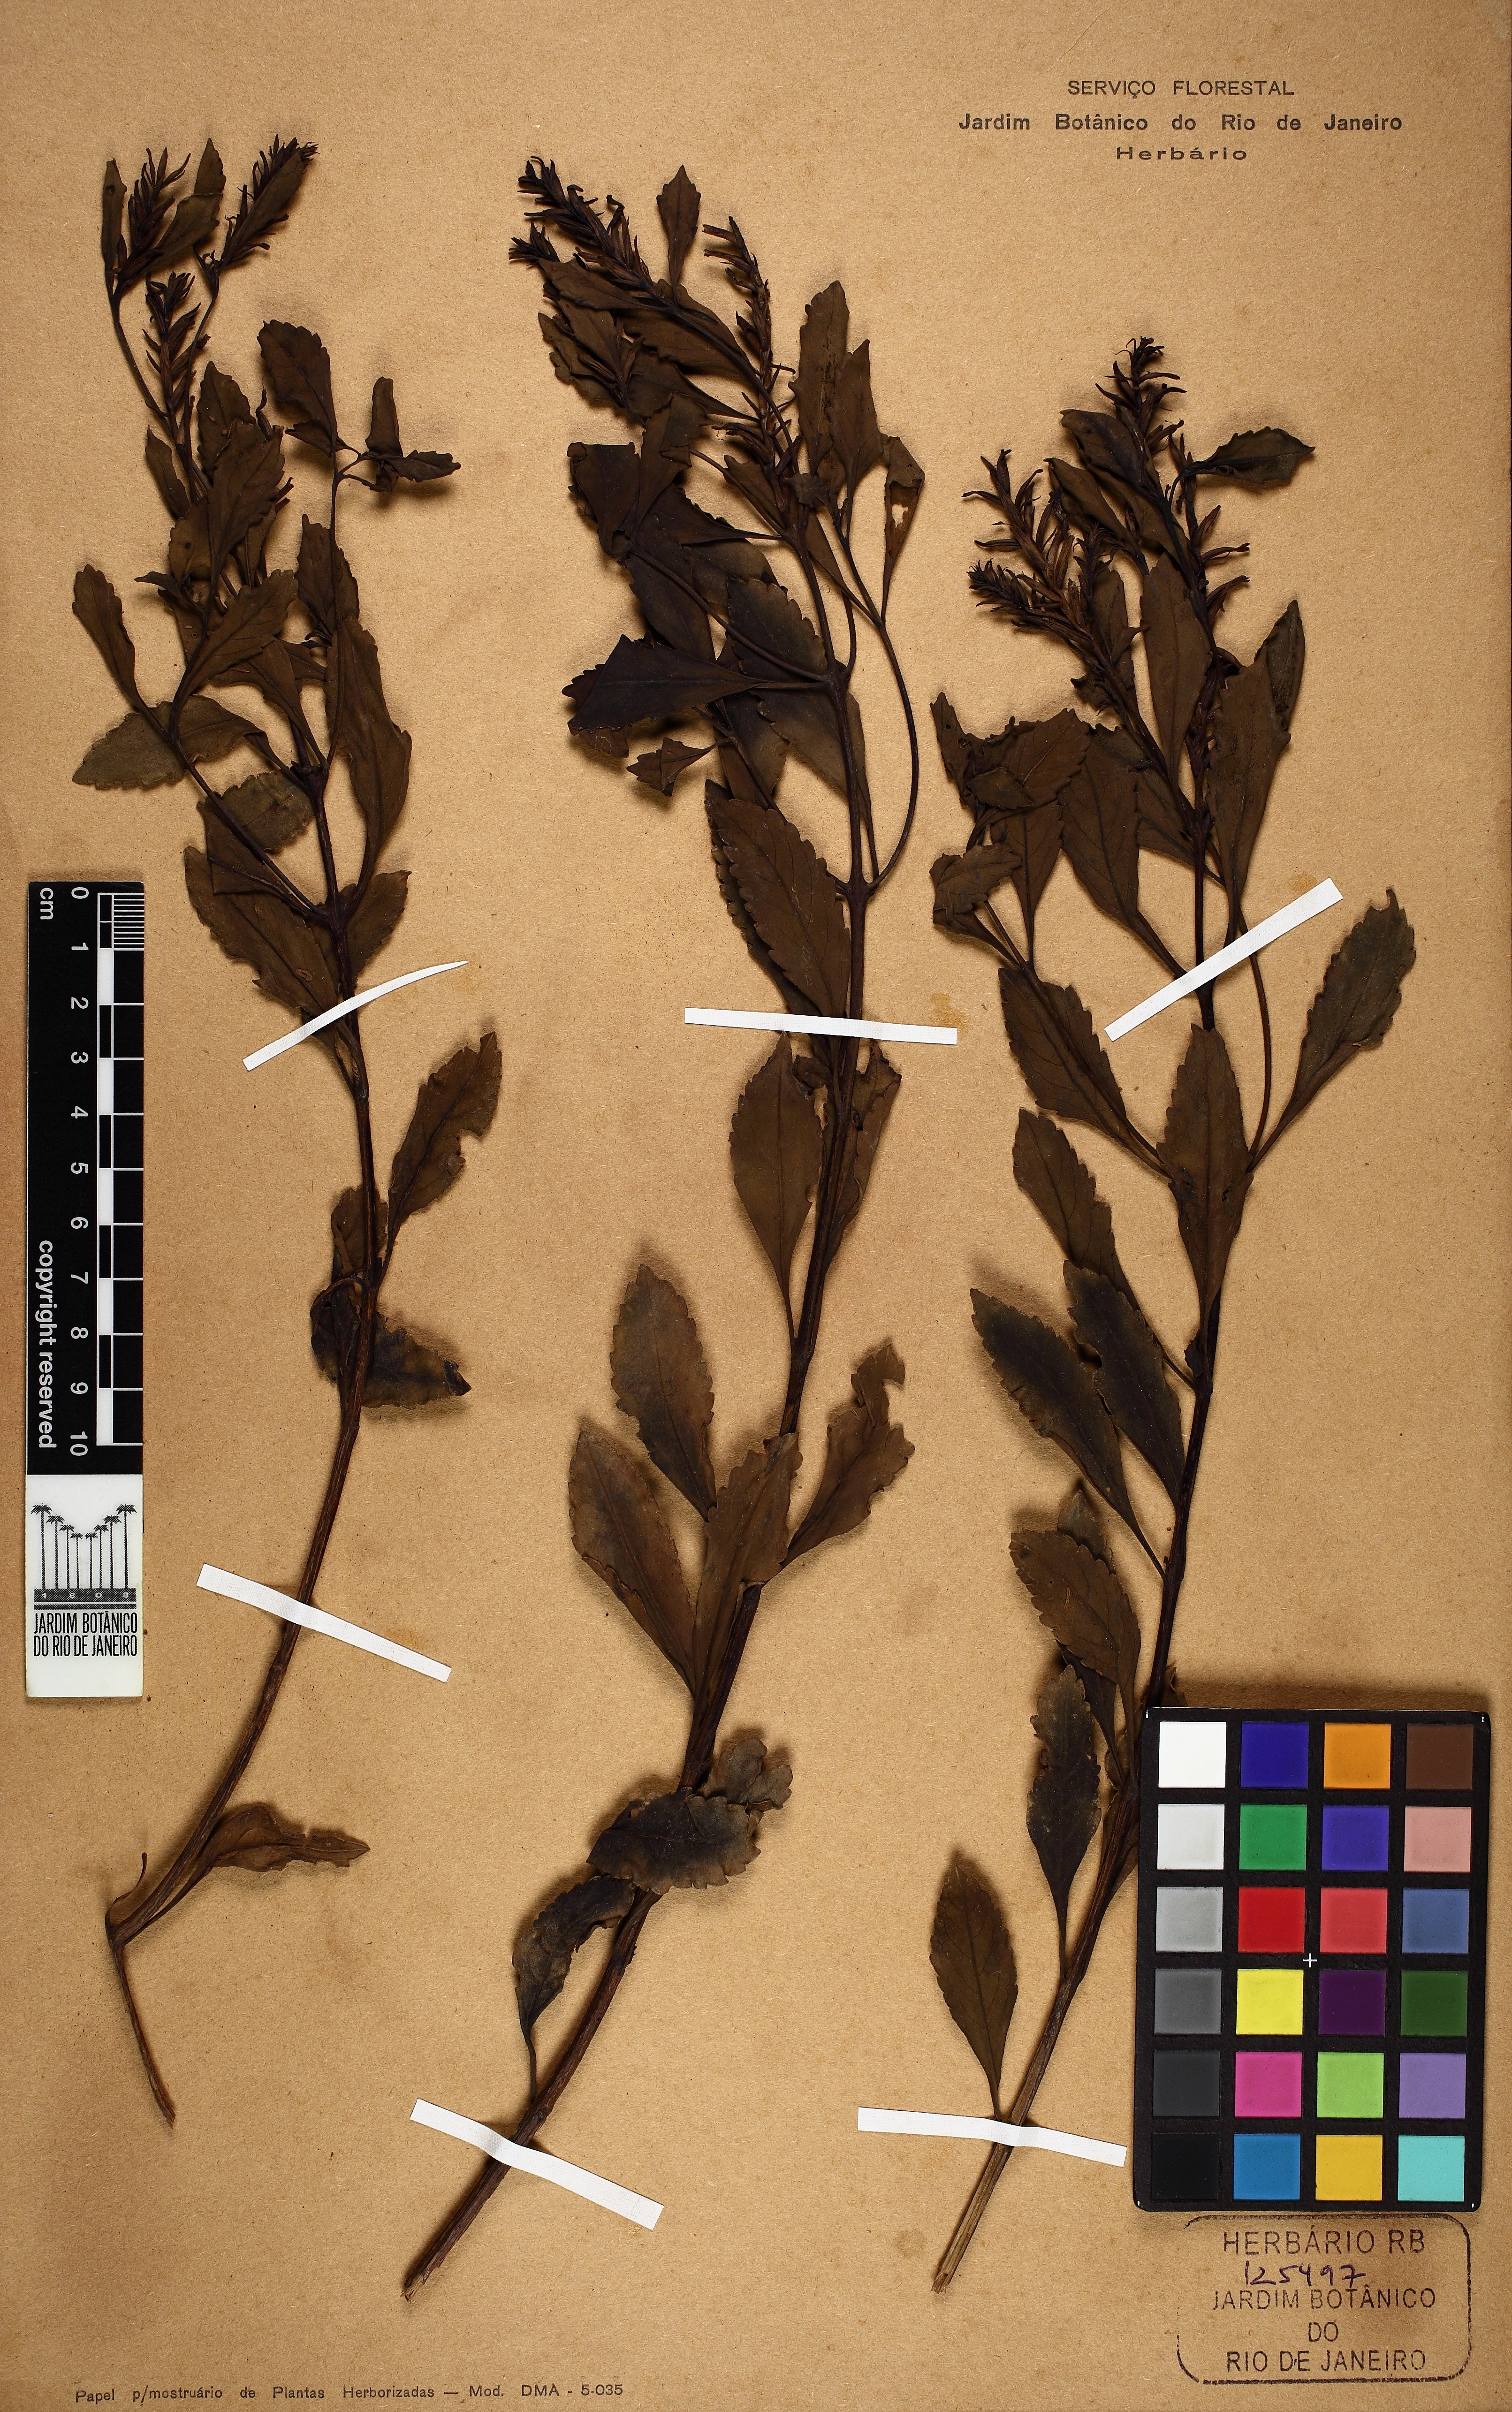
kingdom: Plantae
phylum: Tracheophyta
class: Magnoliopsida
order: Lamiales
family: Verbenaceae
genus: Stachytarpheta
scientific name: Stachytarpheta harleyi
